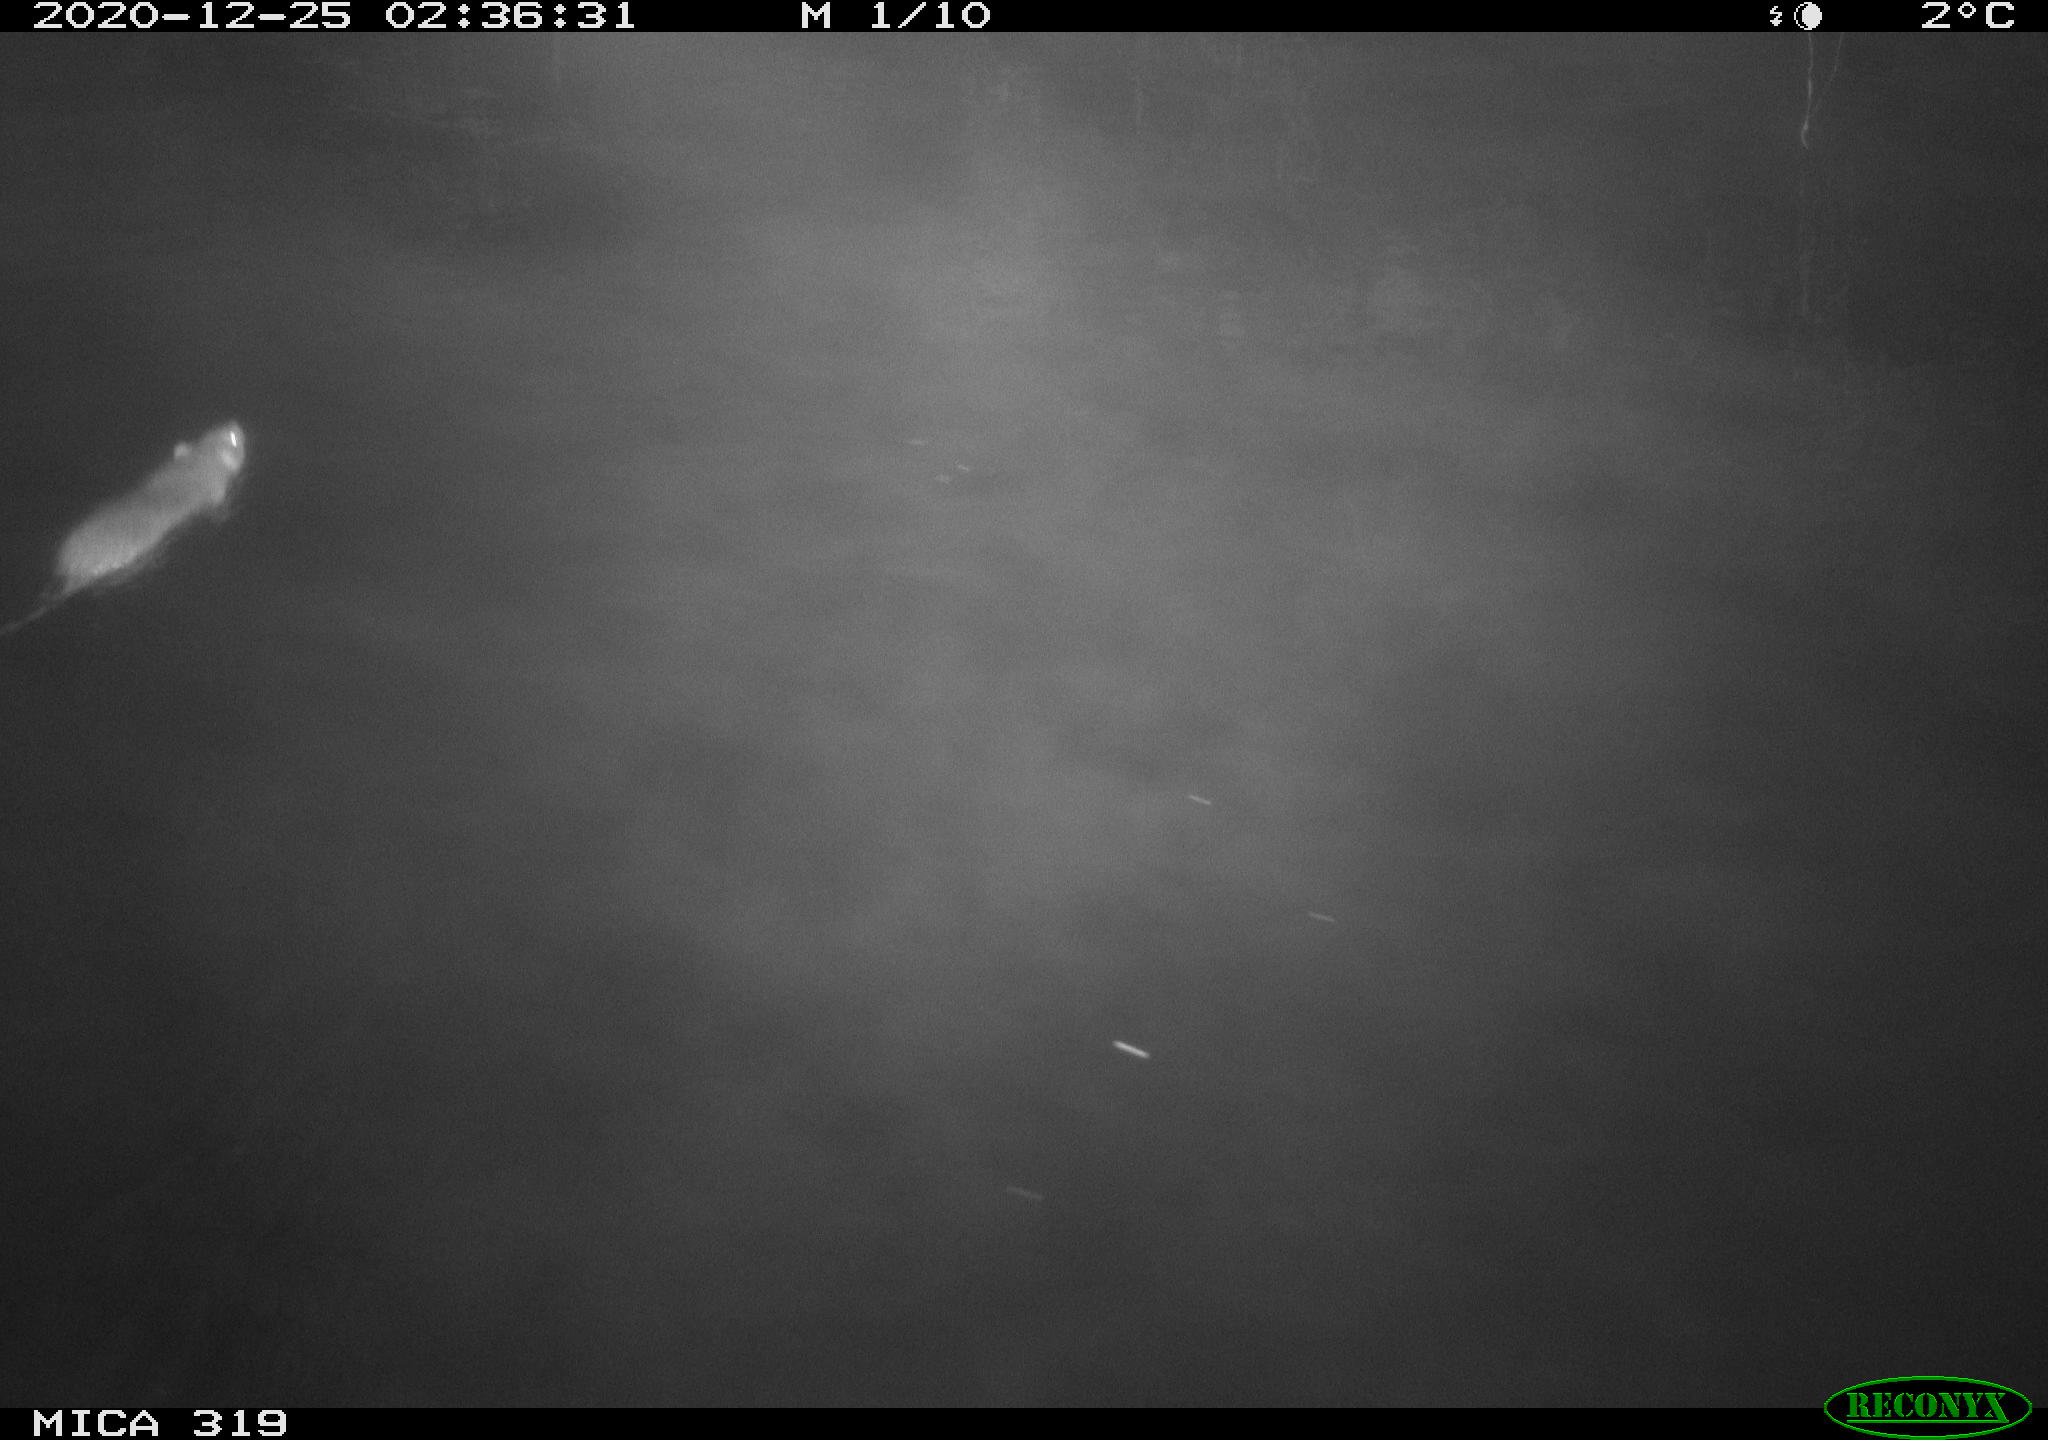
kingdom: Animalia
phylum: Chordata
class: Mammalia
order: Rodentia
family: Muridae
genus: Rattus
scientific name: Rattus norvegicus
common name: Brown rat
